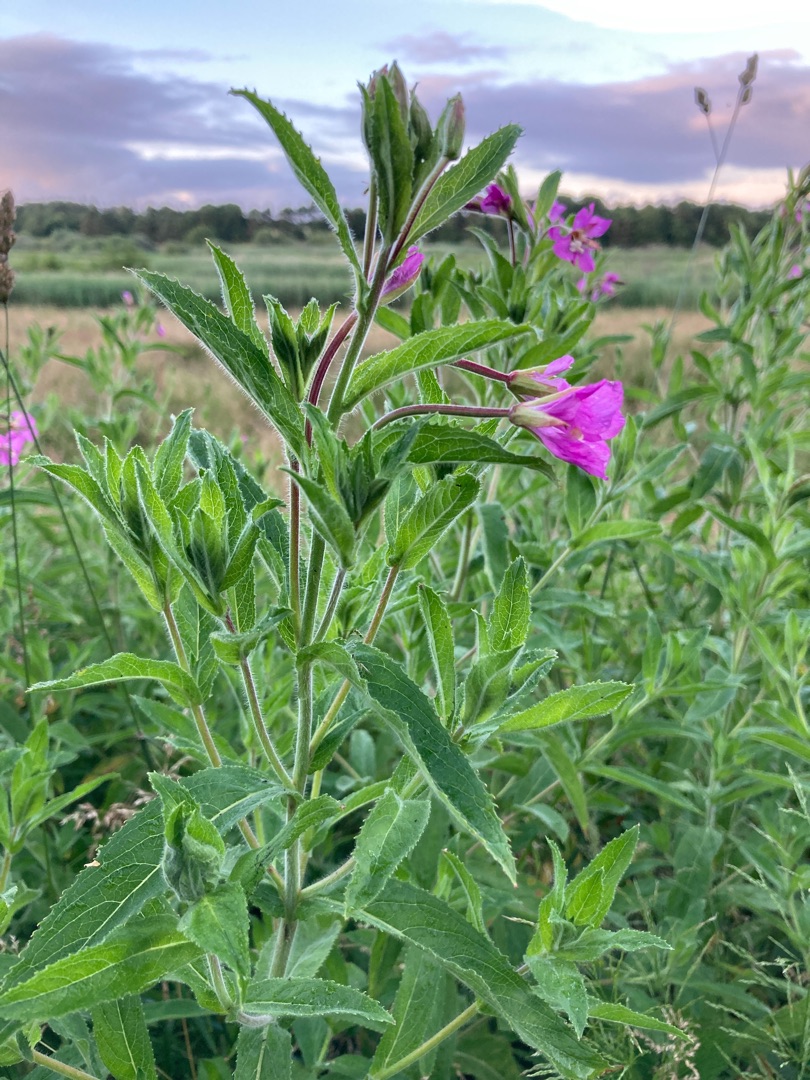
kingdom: Plantae
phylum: Tracheophyta
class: Magnoliopsida
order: Myrtales
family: Onagraceae
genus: Epilobium
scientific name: Epilobium hirsutum
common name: Lådden dueurt
